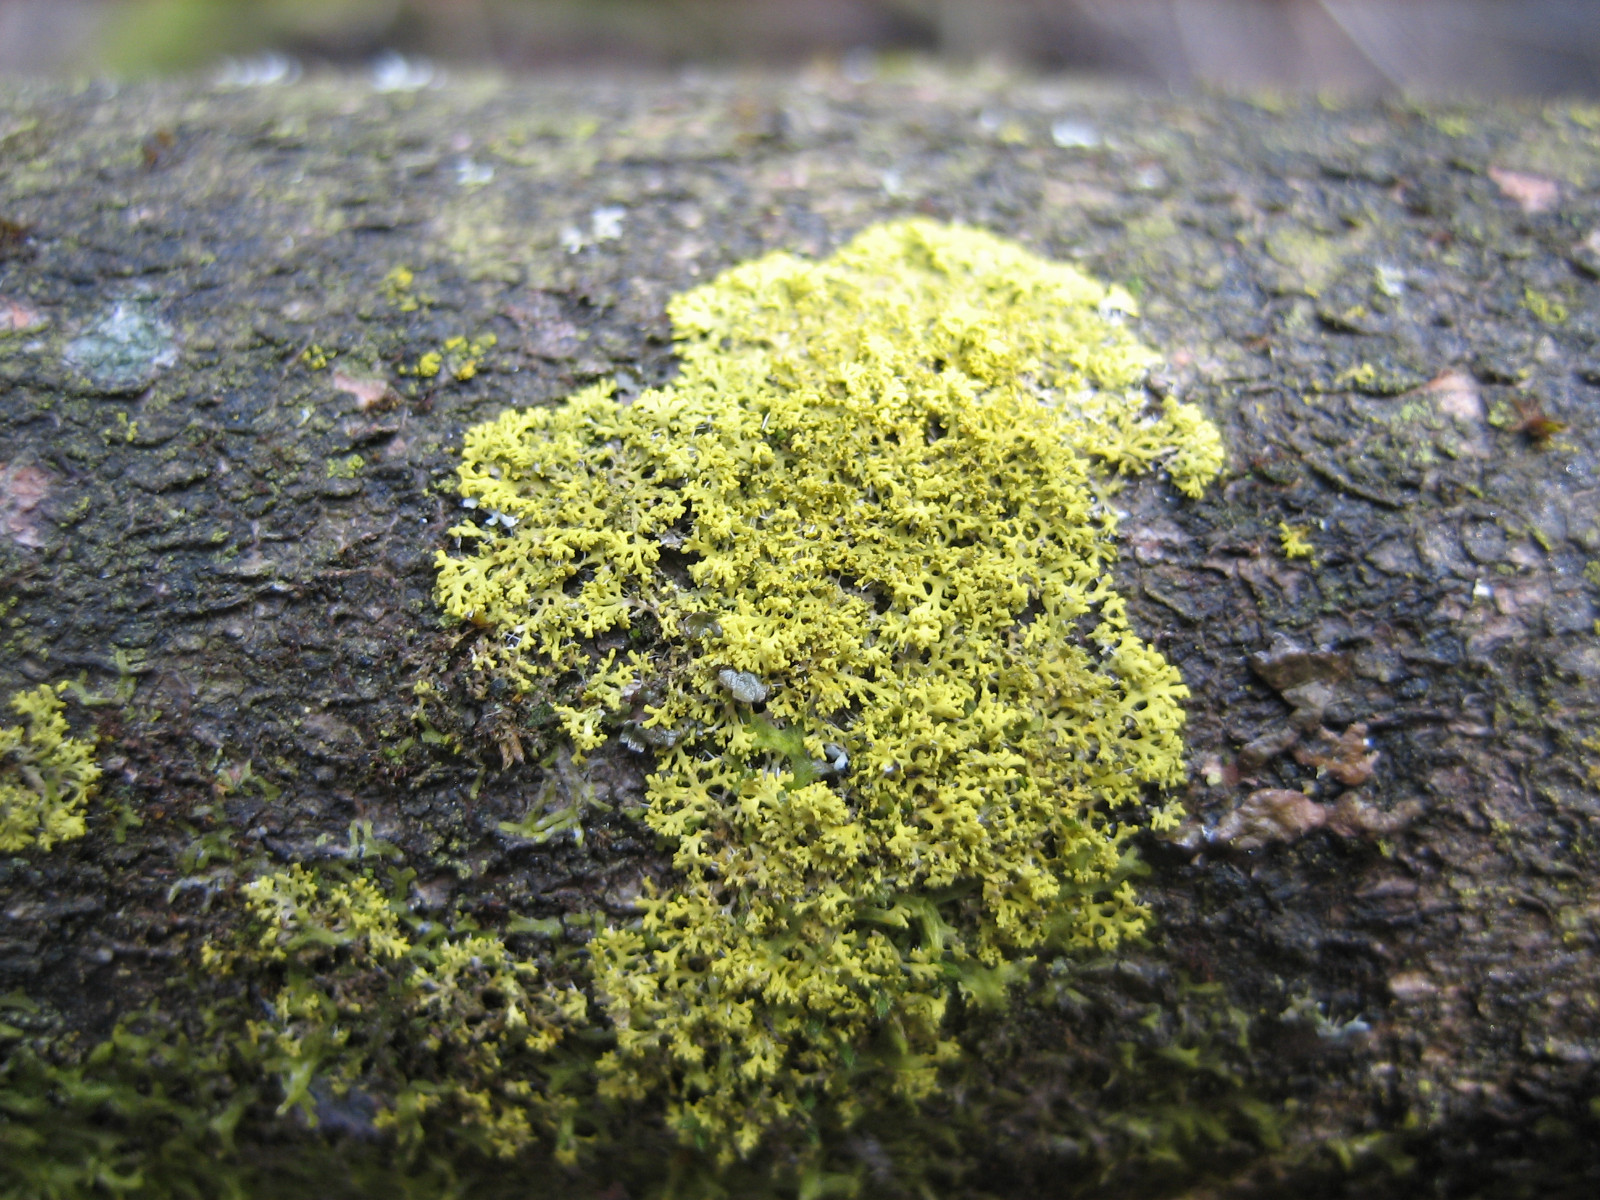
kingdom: Fungi
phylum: Ascomycota
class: Candelariomycetes
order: Candelariales
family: Candelariaceae
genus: Candelaria
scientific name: Candelaria concolor
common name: fliget smørlav
